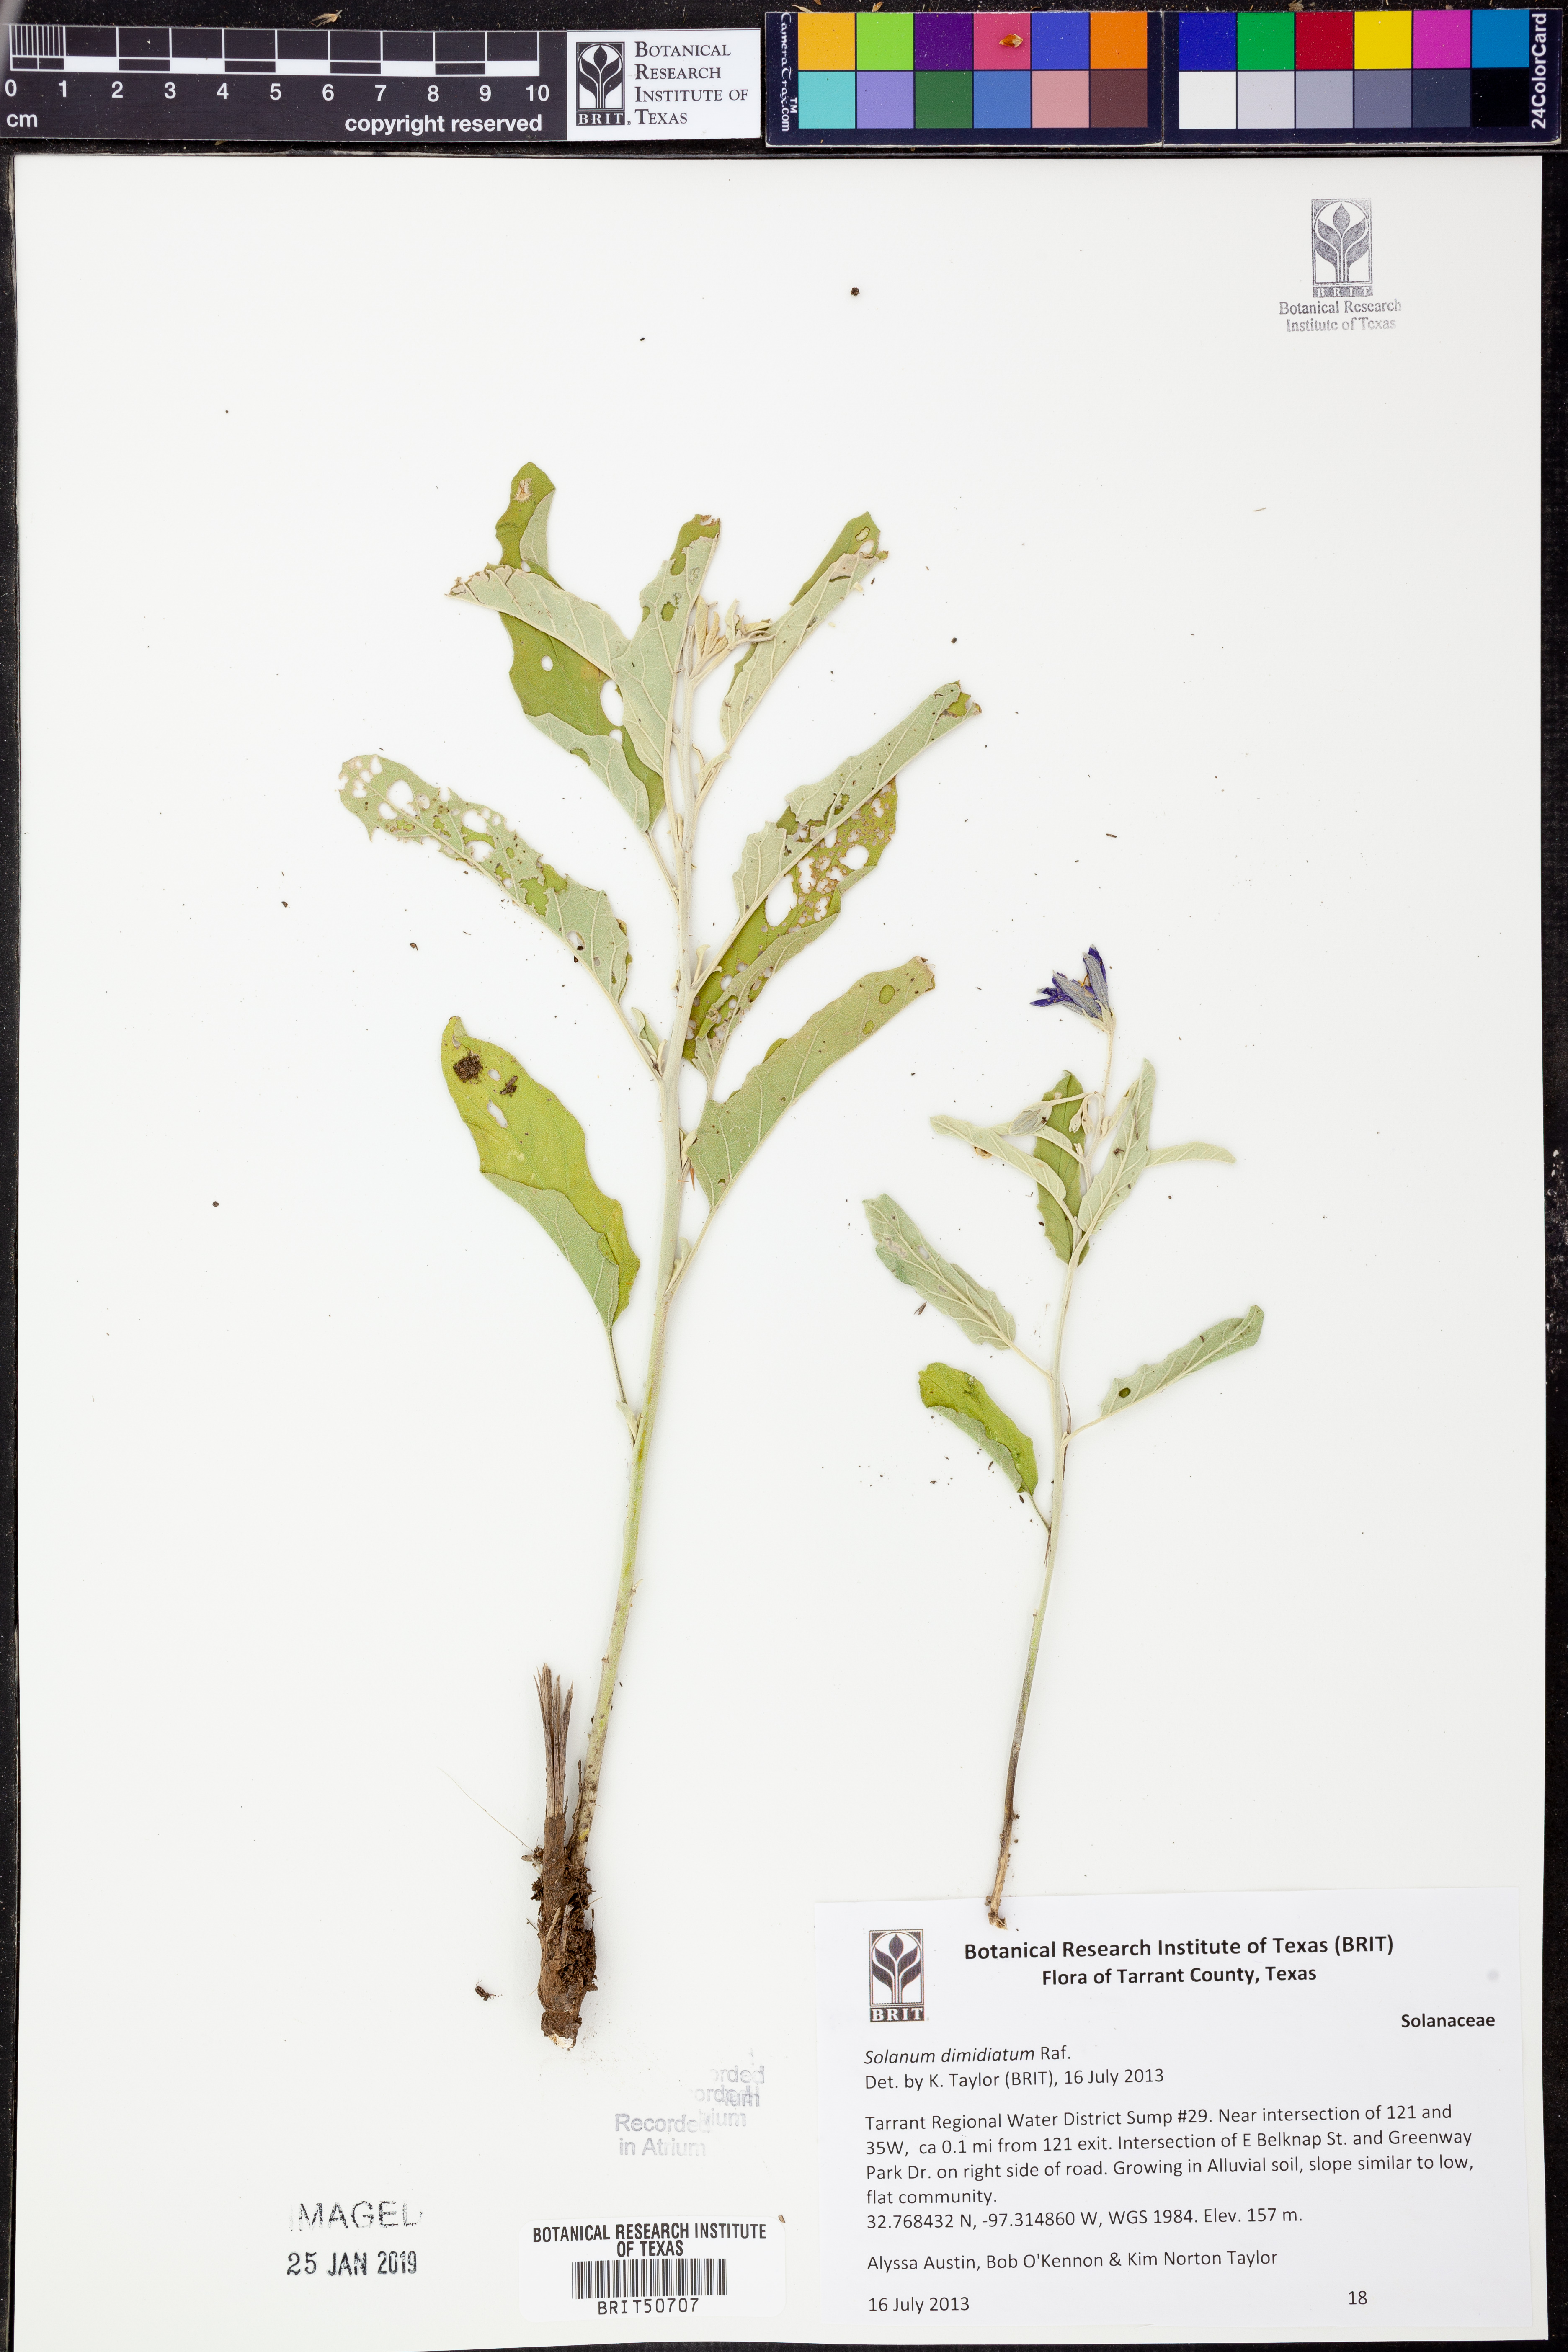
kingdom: Plantae
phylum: Tracheophyta
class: Magnoliopsida
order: Solanales
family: Solanaceae
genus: Solanum
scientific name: Solanum dimidiatum
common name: Carolina horse-nettle
